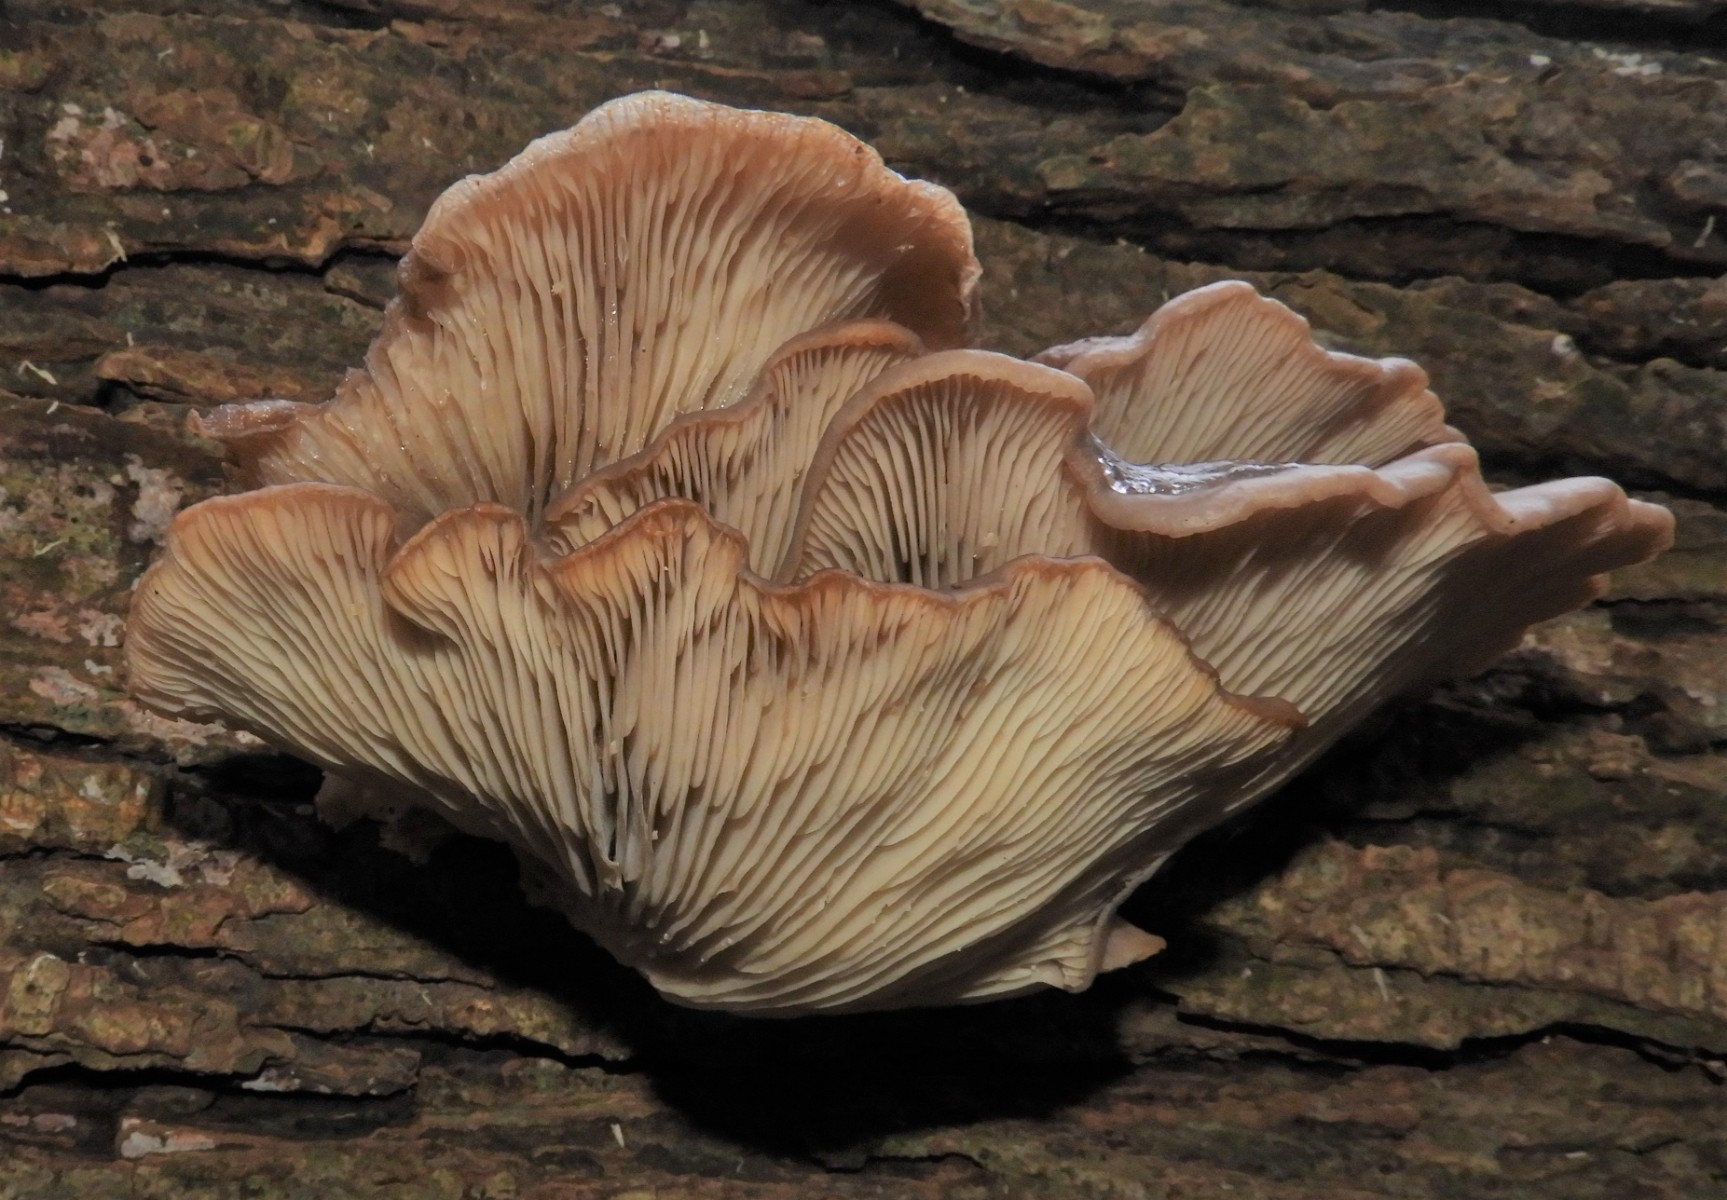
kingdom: Fungi
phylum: Basidiomycota
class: Agaricomycetes
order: Agaricales
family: Pleurotaceae
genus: Pleurotus
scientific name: Pleurotus ostreatus
